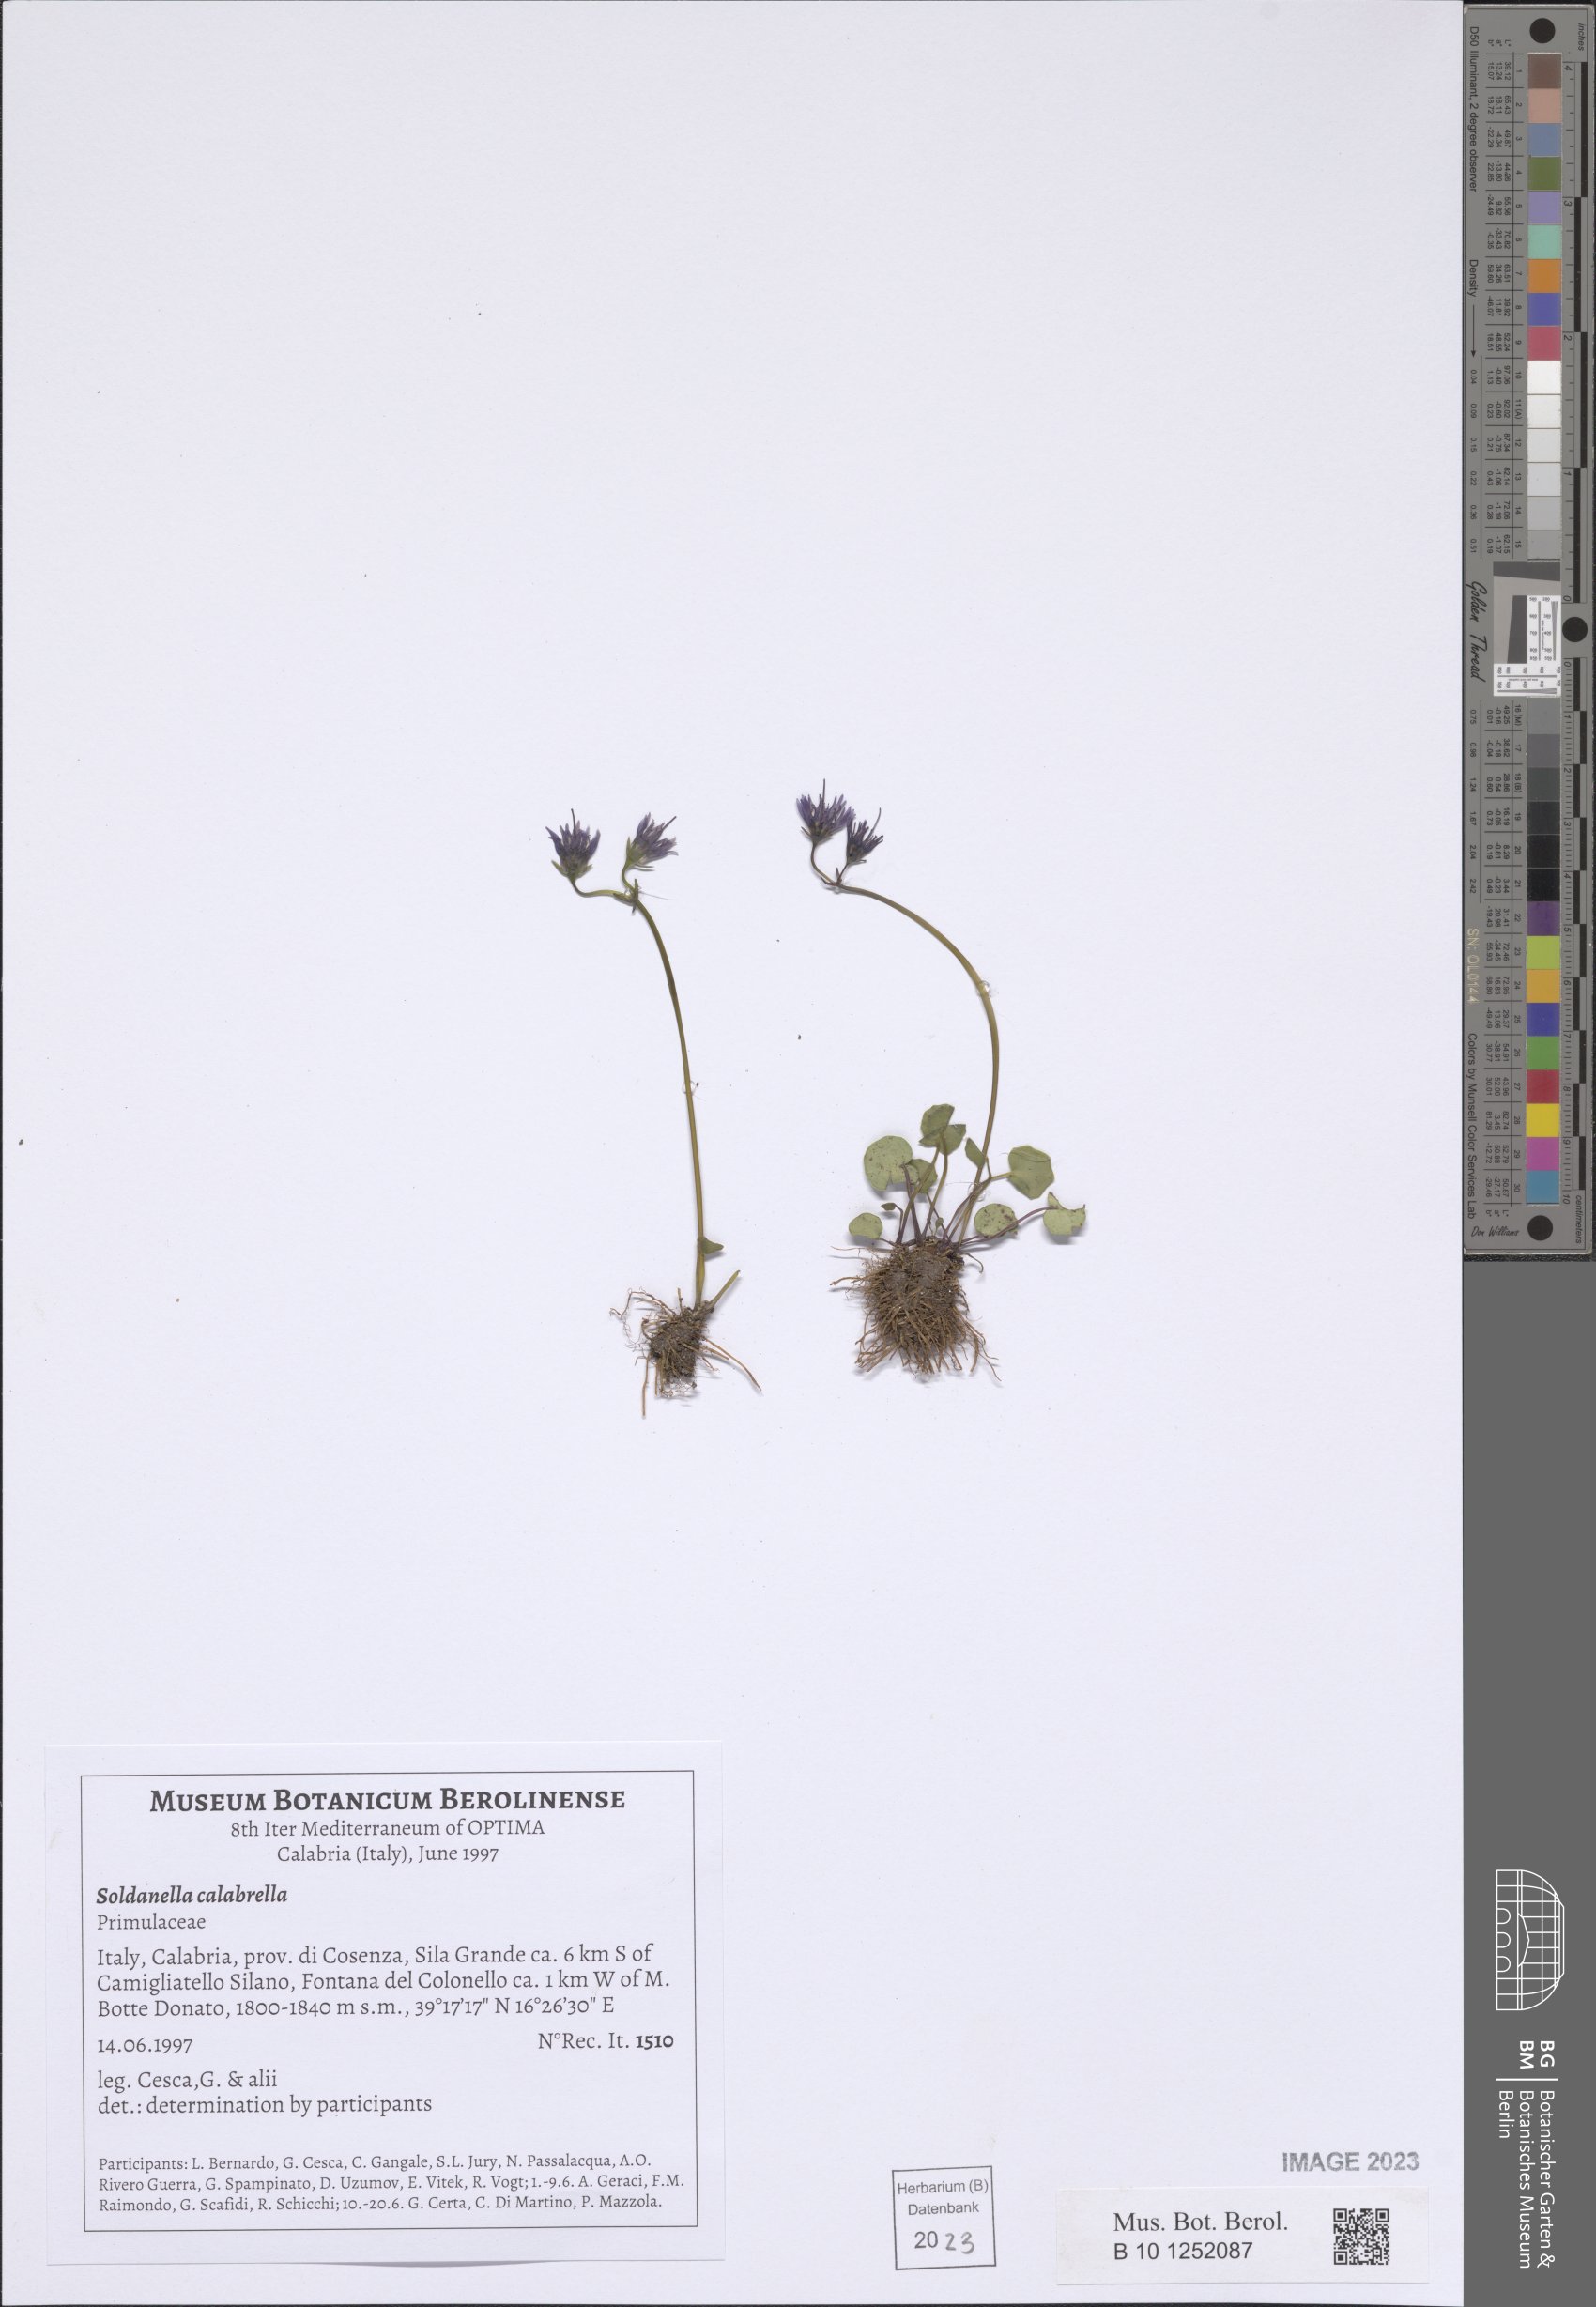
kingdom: Plantae
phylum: Tracheophyta
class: Magnoliopsida
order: Ericales
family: Primulaceae
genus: Soldanella
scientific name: Soldanella calabrella
